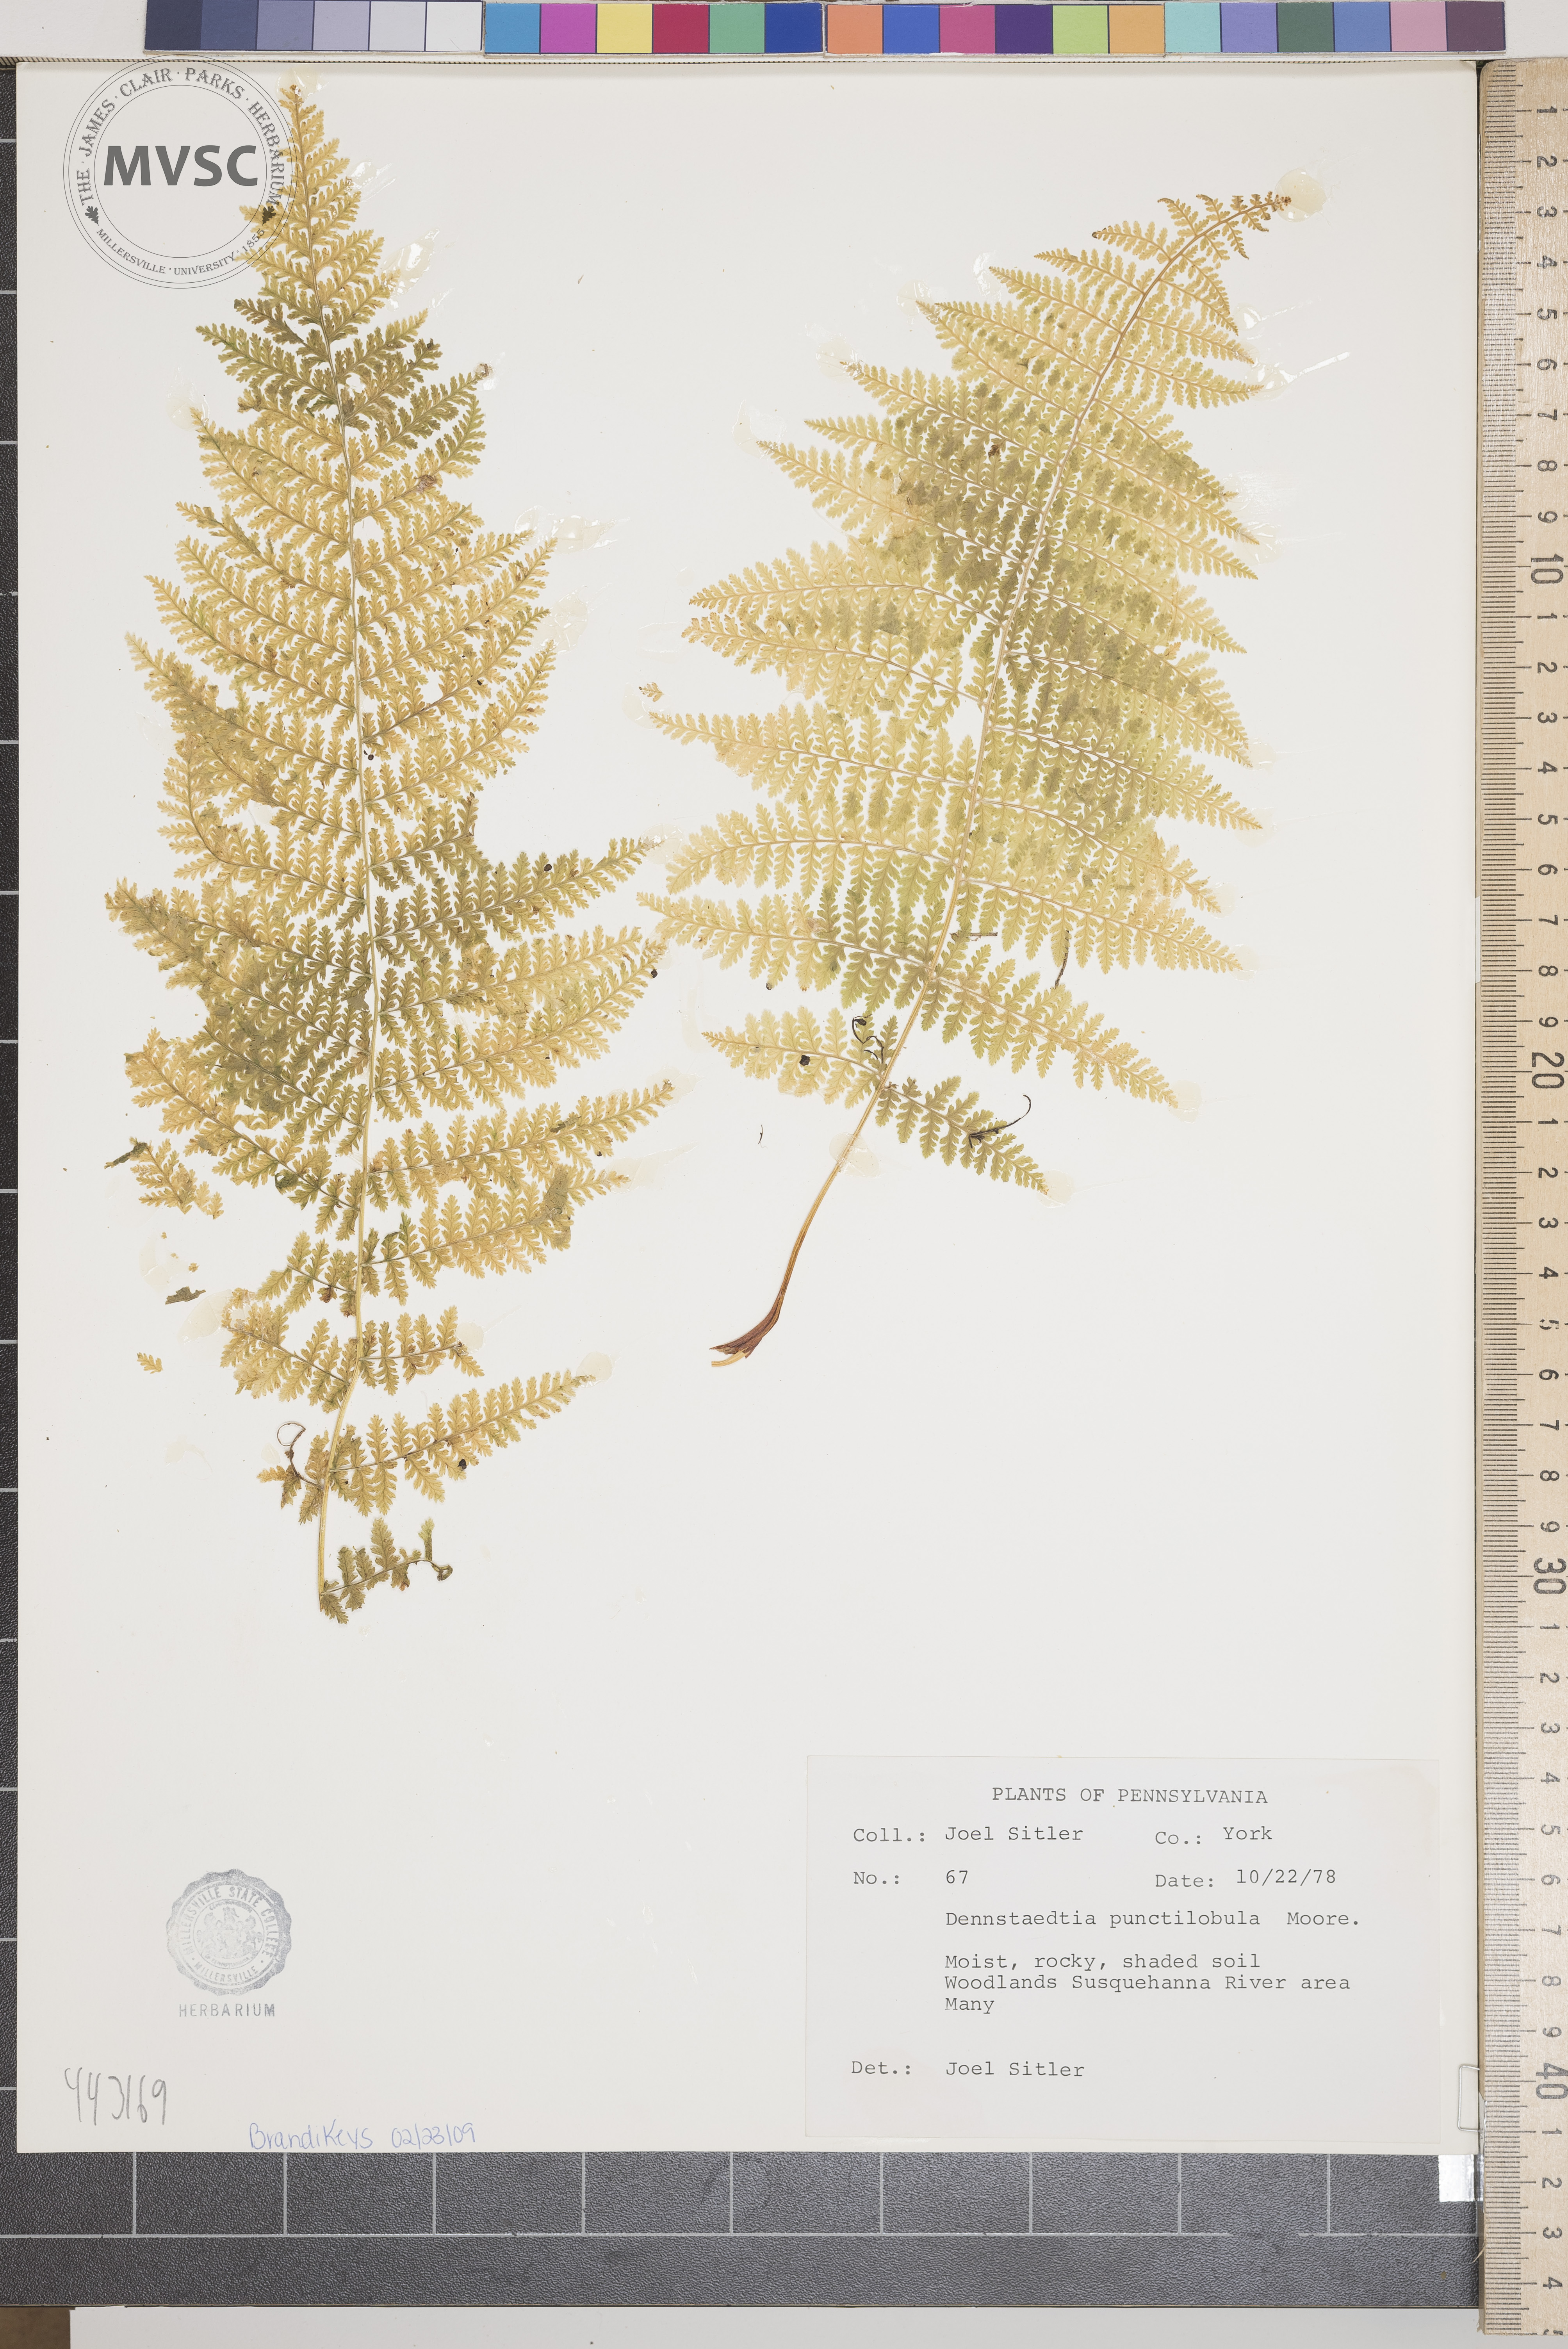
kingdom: Plantae
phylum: Tracheophyta
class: Polypodiopsida
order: Polypodiales
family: Dennstaedtiaceae
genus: Sitobolium
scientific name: Sitobolium punctilobum
